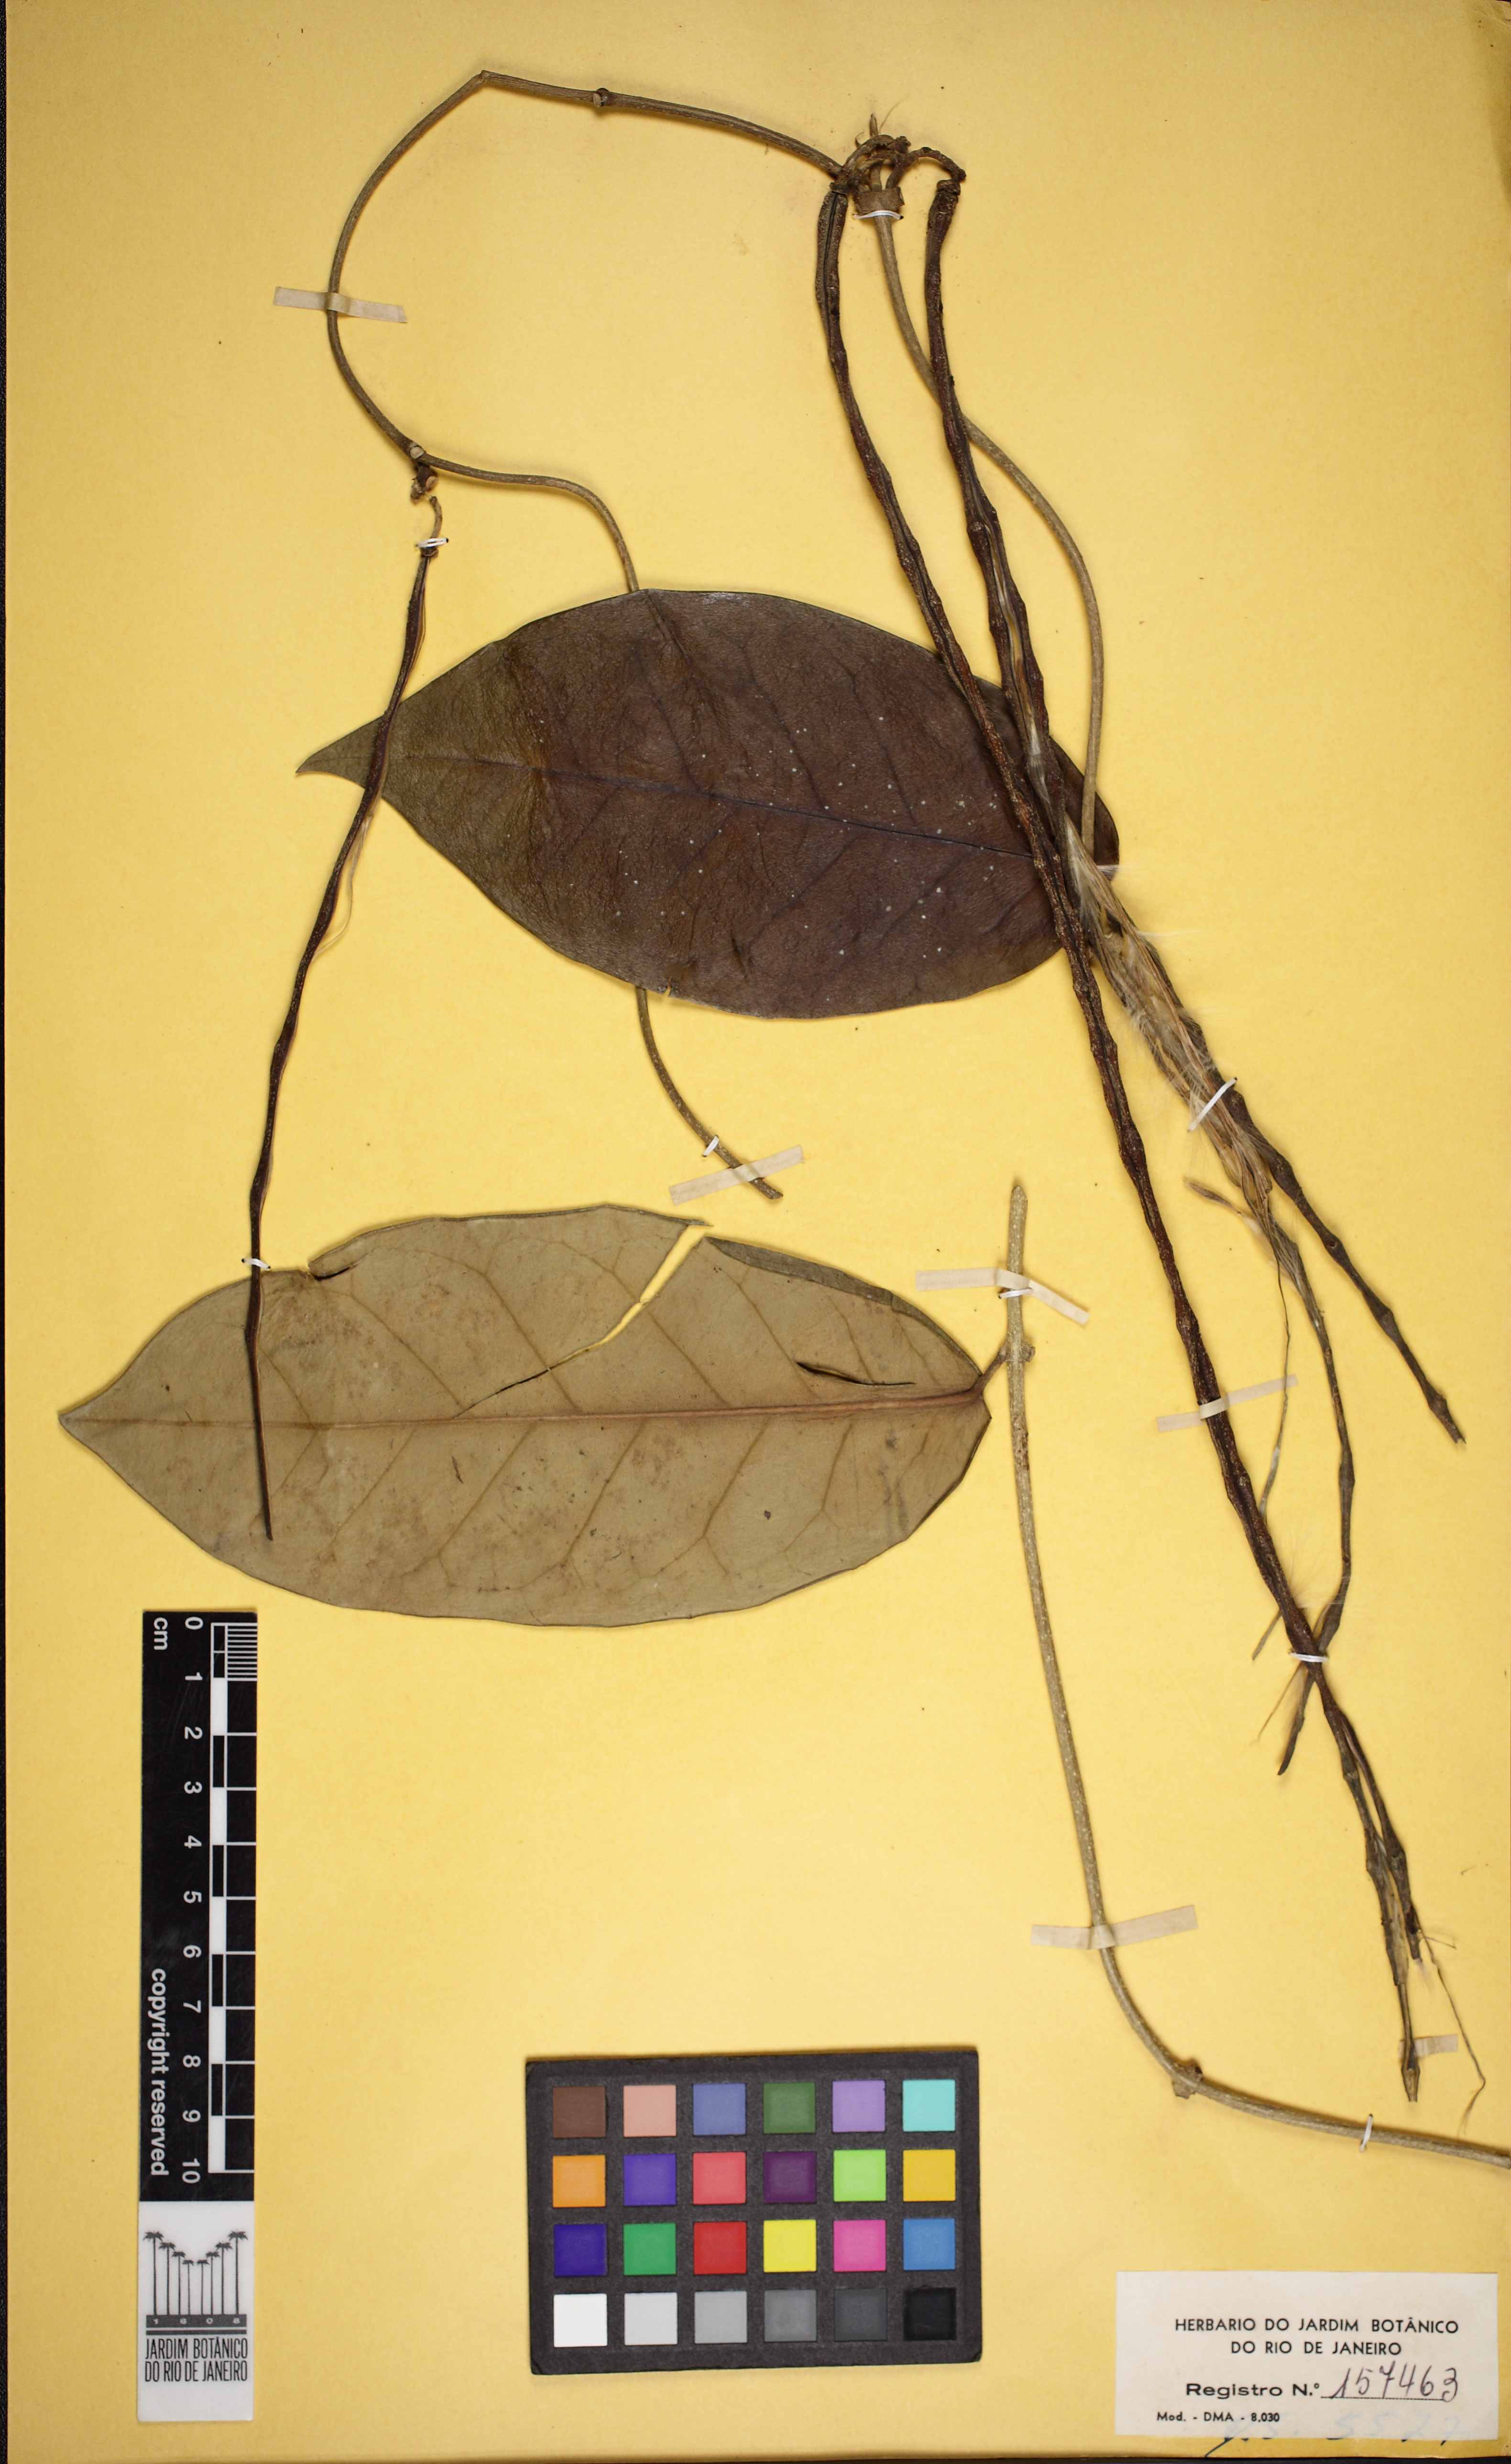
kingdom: Plantae
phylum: Tracheophyta
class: Magnoliopsida
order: Gentianales
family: Apocynaceae
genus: Prestonia
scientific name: Prestonia coalita
